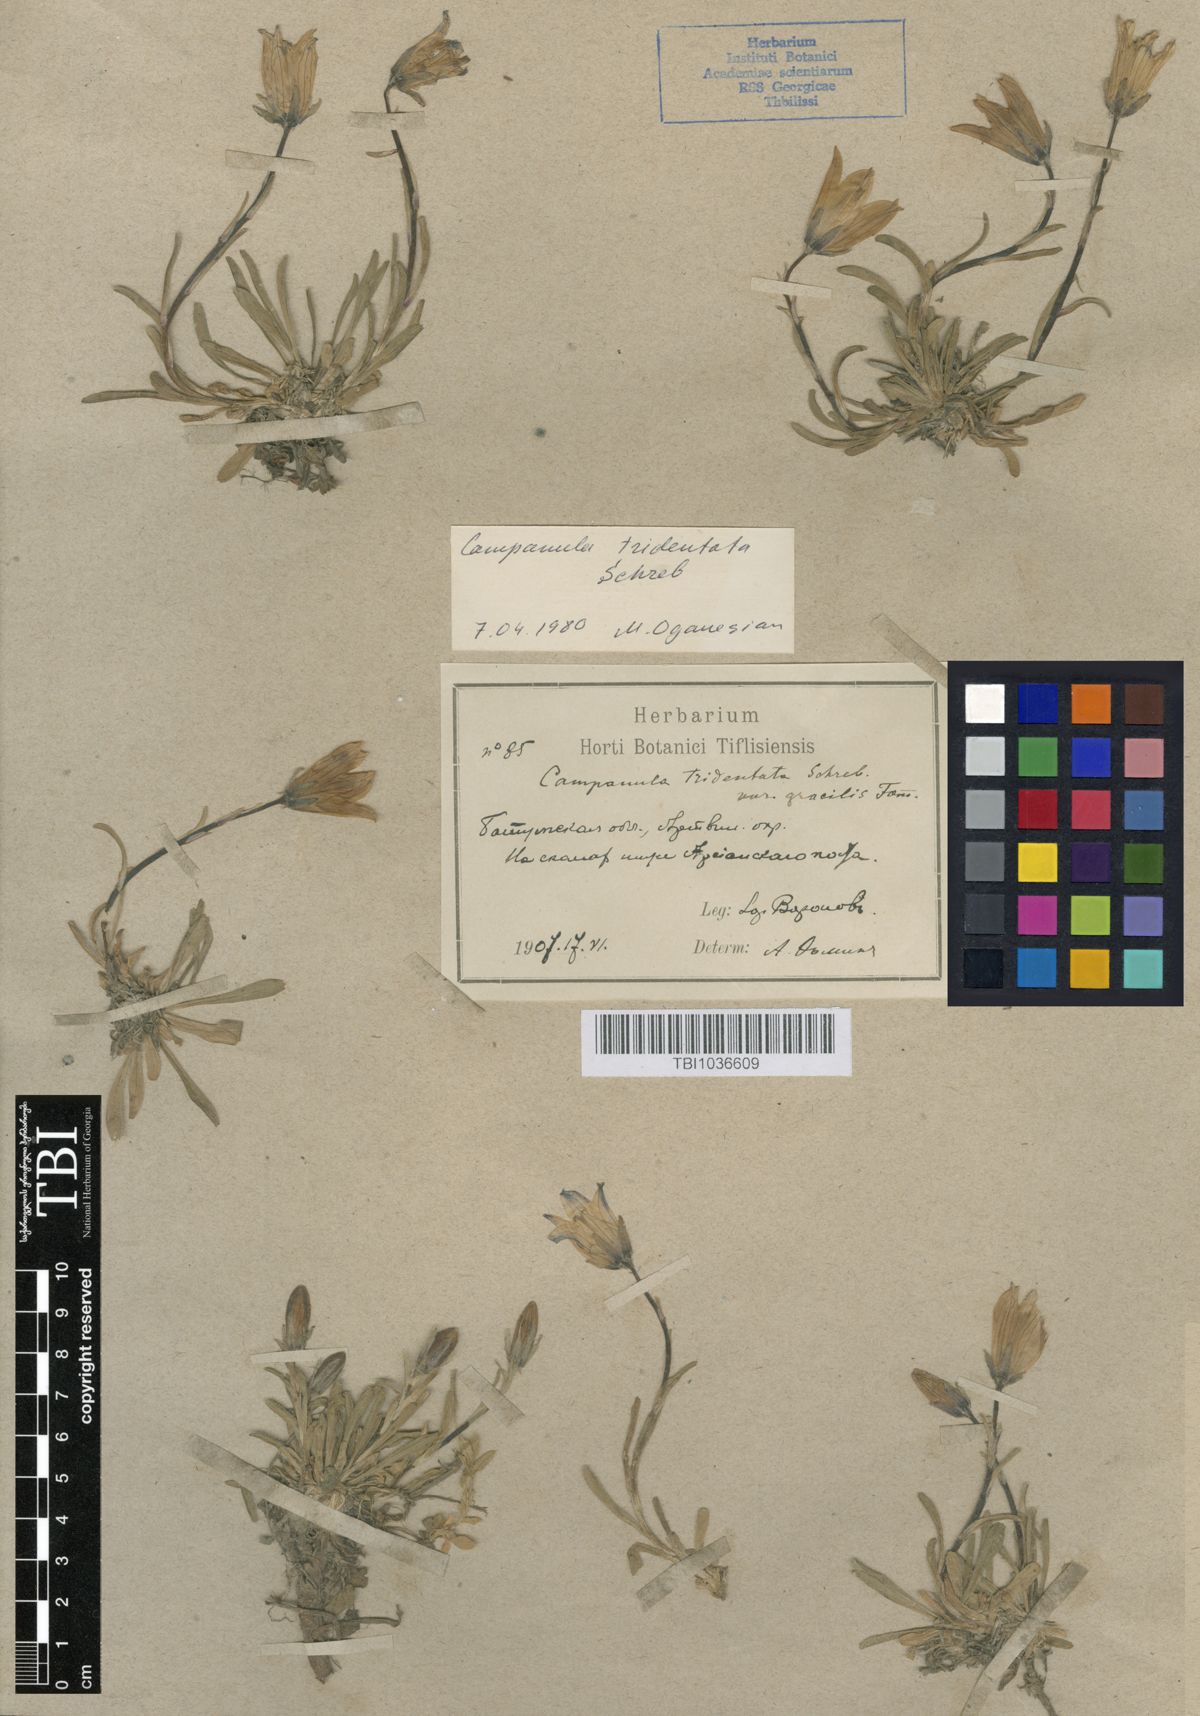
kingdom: Plantae
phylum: Tracheophyta
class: Magnoliopsida
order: Asterales
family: Campanulaceae
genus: Campanula
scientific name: Campanula tridentata
